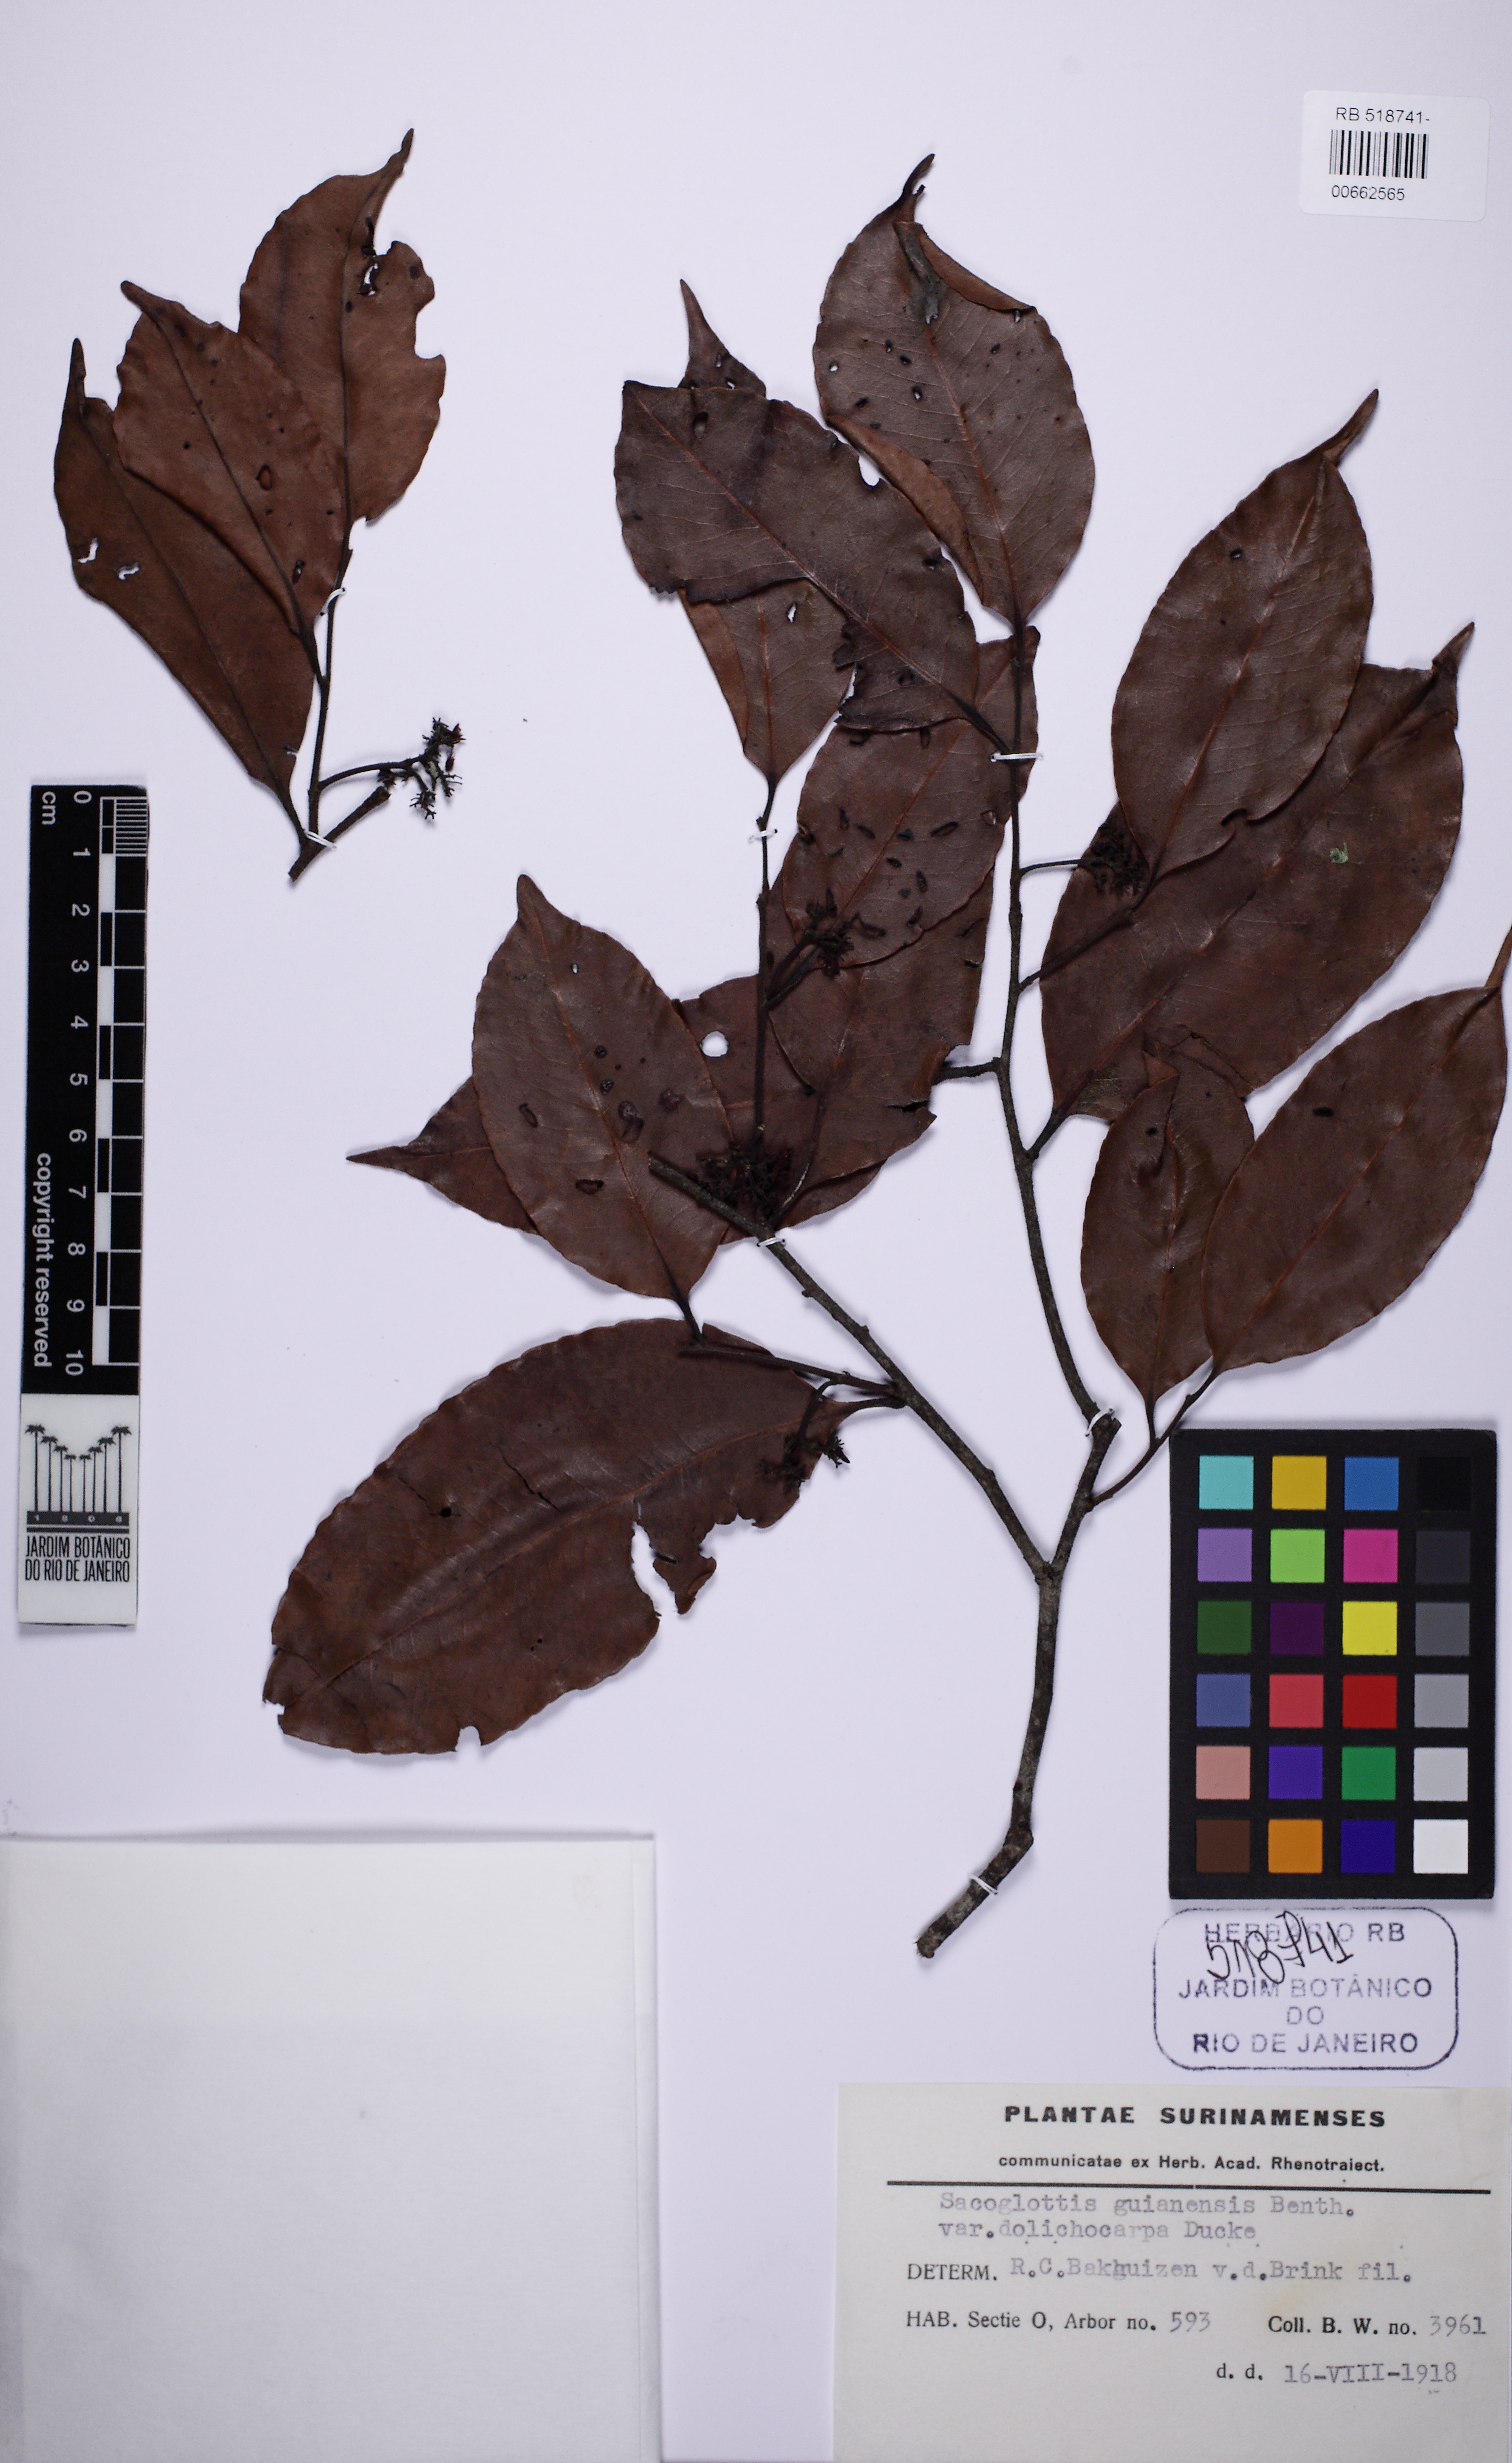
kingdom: Plantae
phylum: Tracheophyta
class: Magnoliopsida
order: Malpighiales
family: Humiriaceae
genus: Sacoglottis
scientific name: Sacoglottis guianensis
